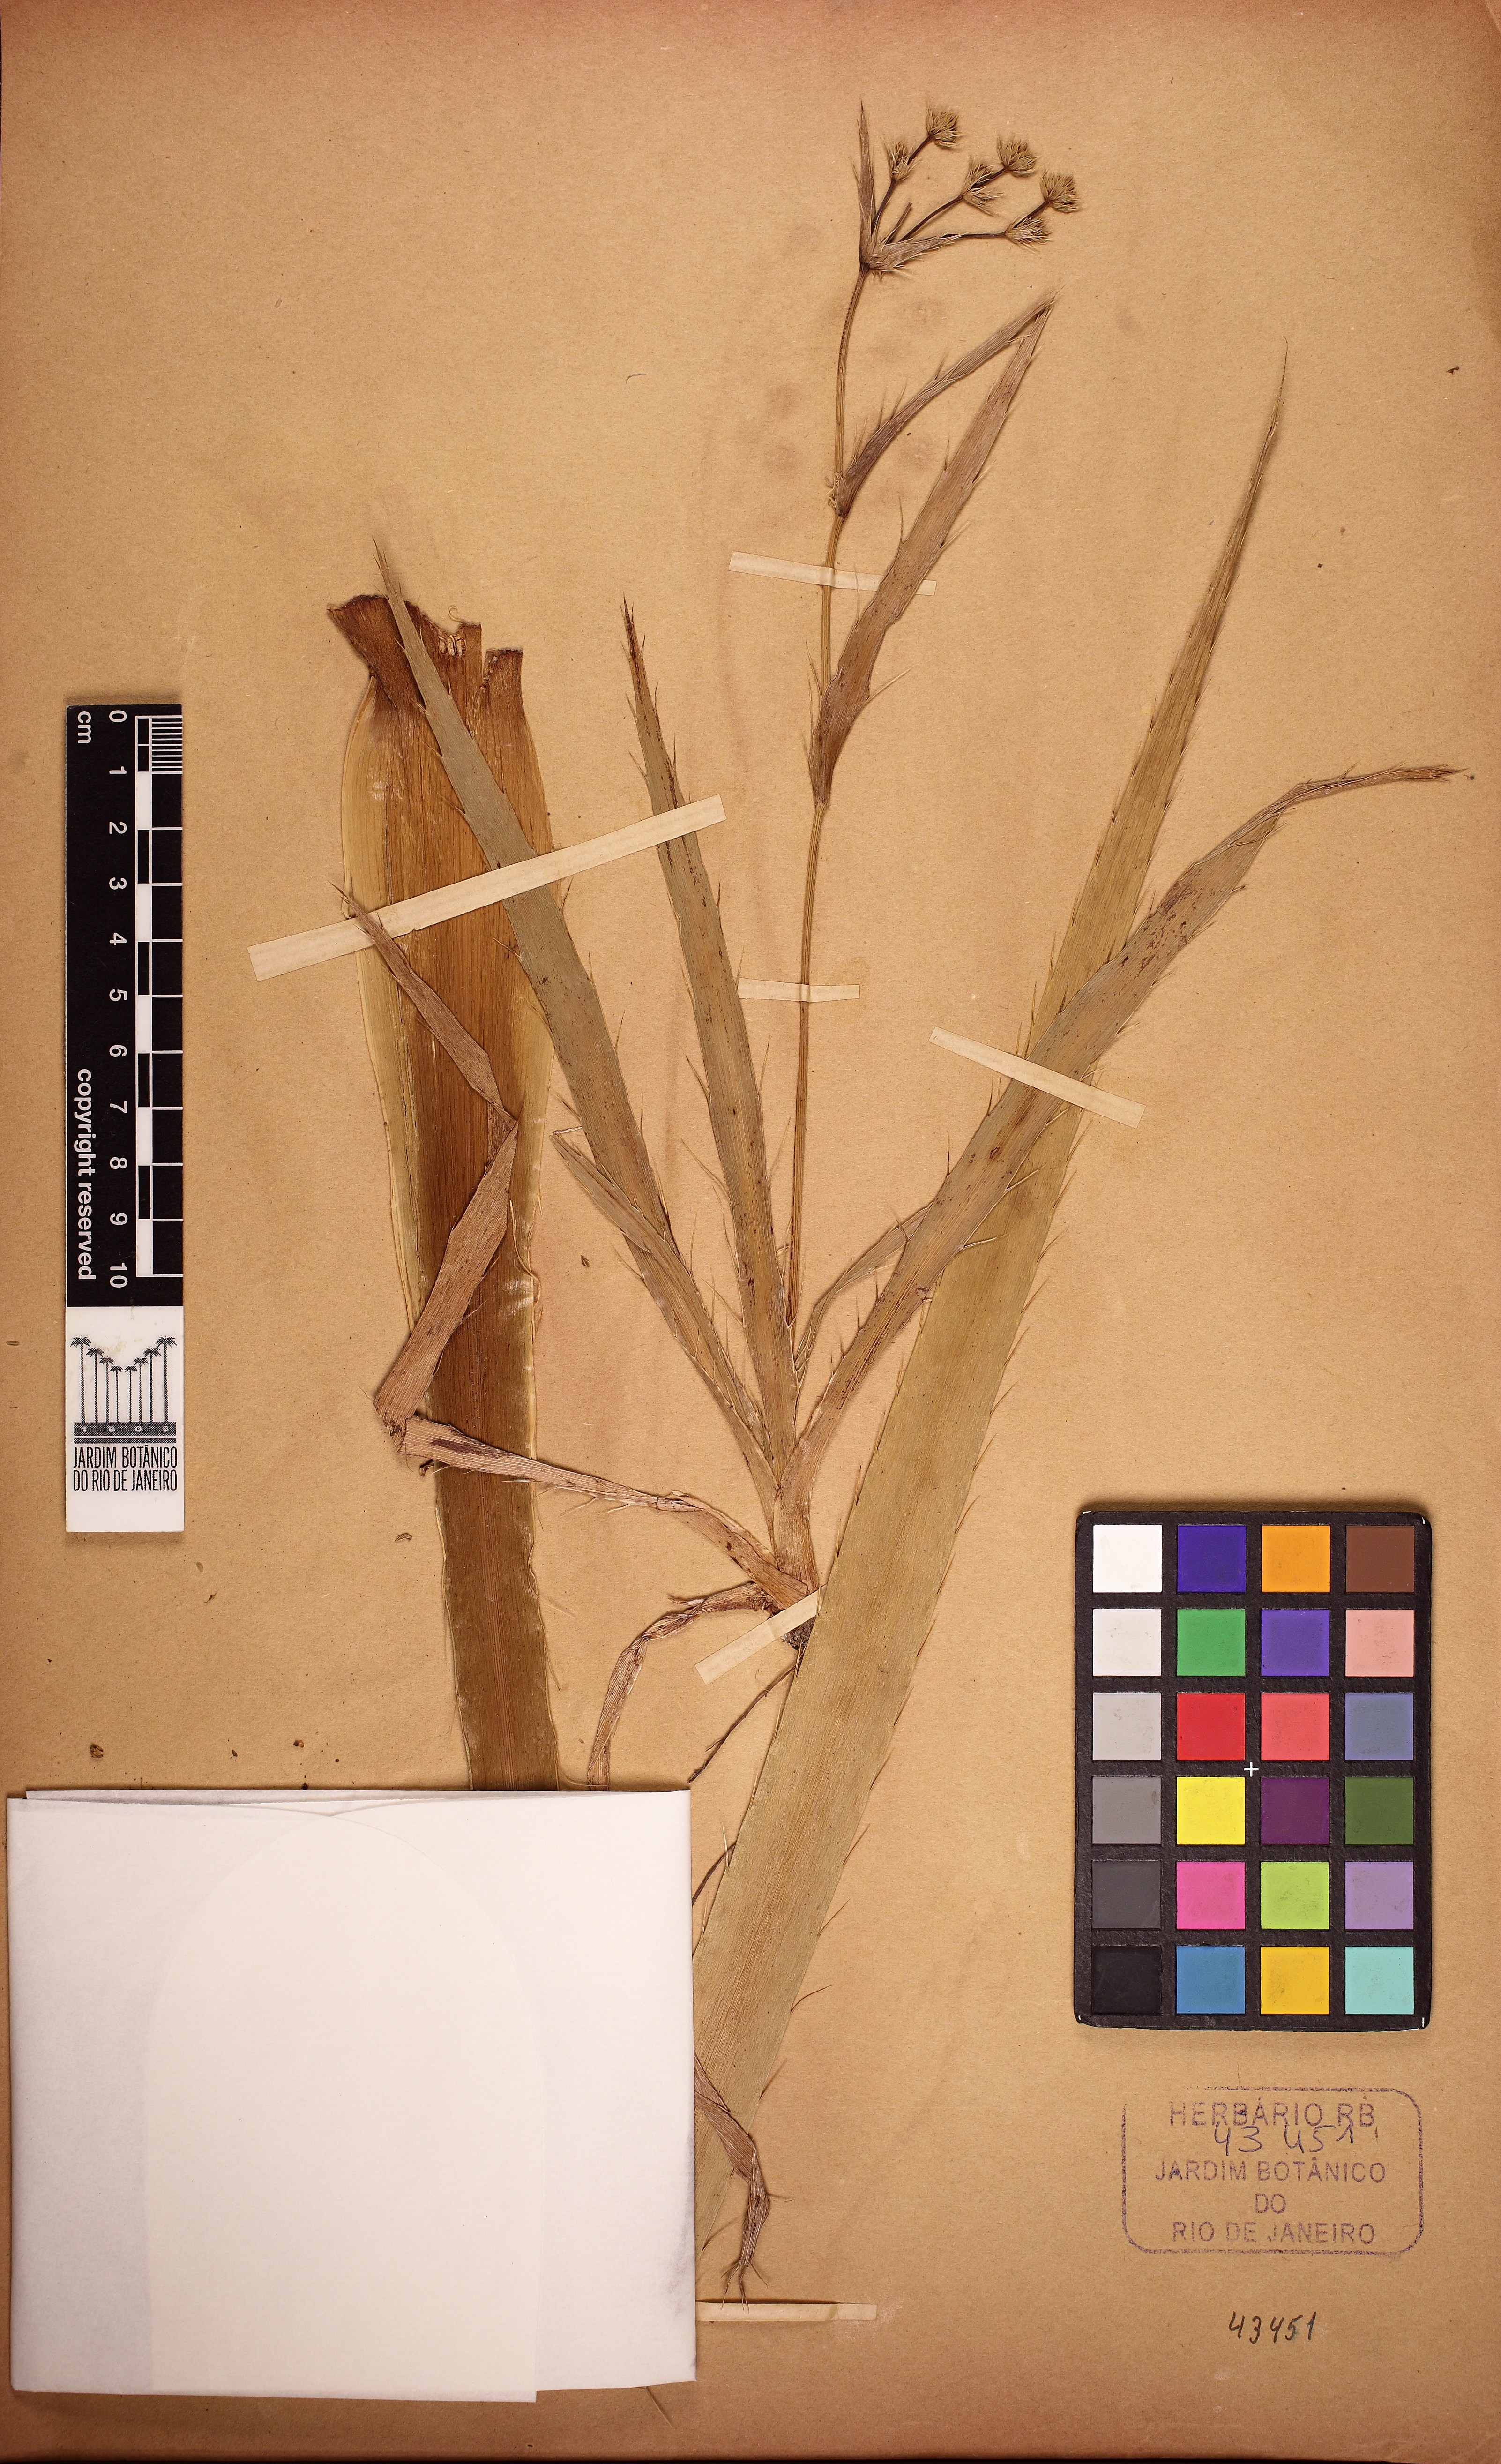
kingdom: Plantae
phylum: Tracheophyta
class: Magnoliopsida
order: Apiales
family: Apiaceae
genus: Eryngium
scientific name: Eryngium fluminense
